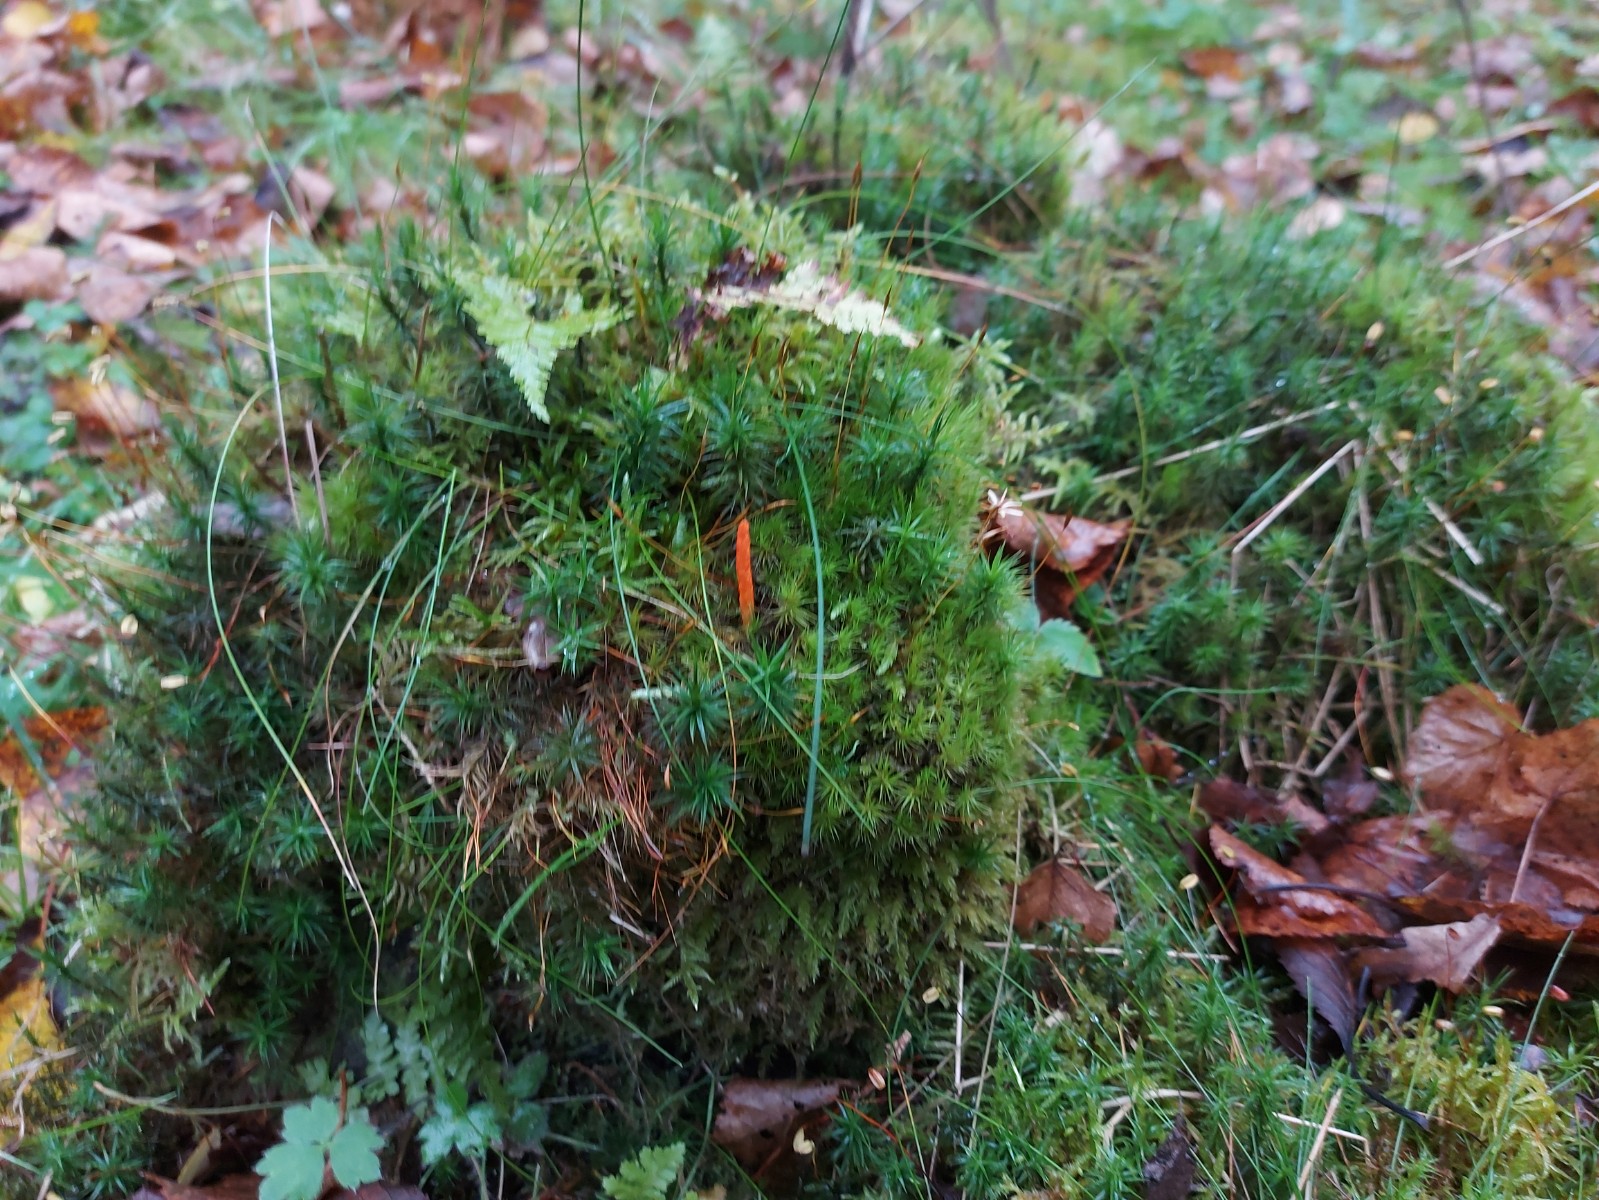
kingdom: Fungi
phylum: Ascomycota
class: Sordariomycetes
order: Hypocreales
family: Cordycipitaceae
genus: Cordyceps
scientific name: Cordyceps militaris
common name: puppe-snyltekølle
